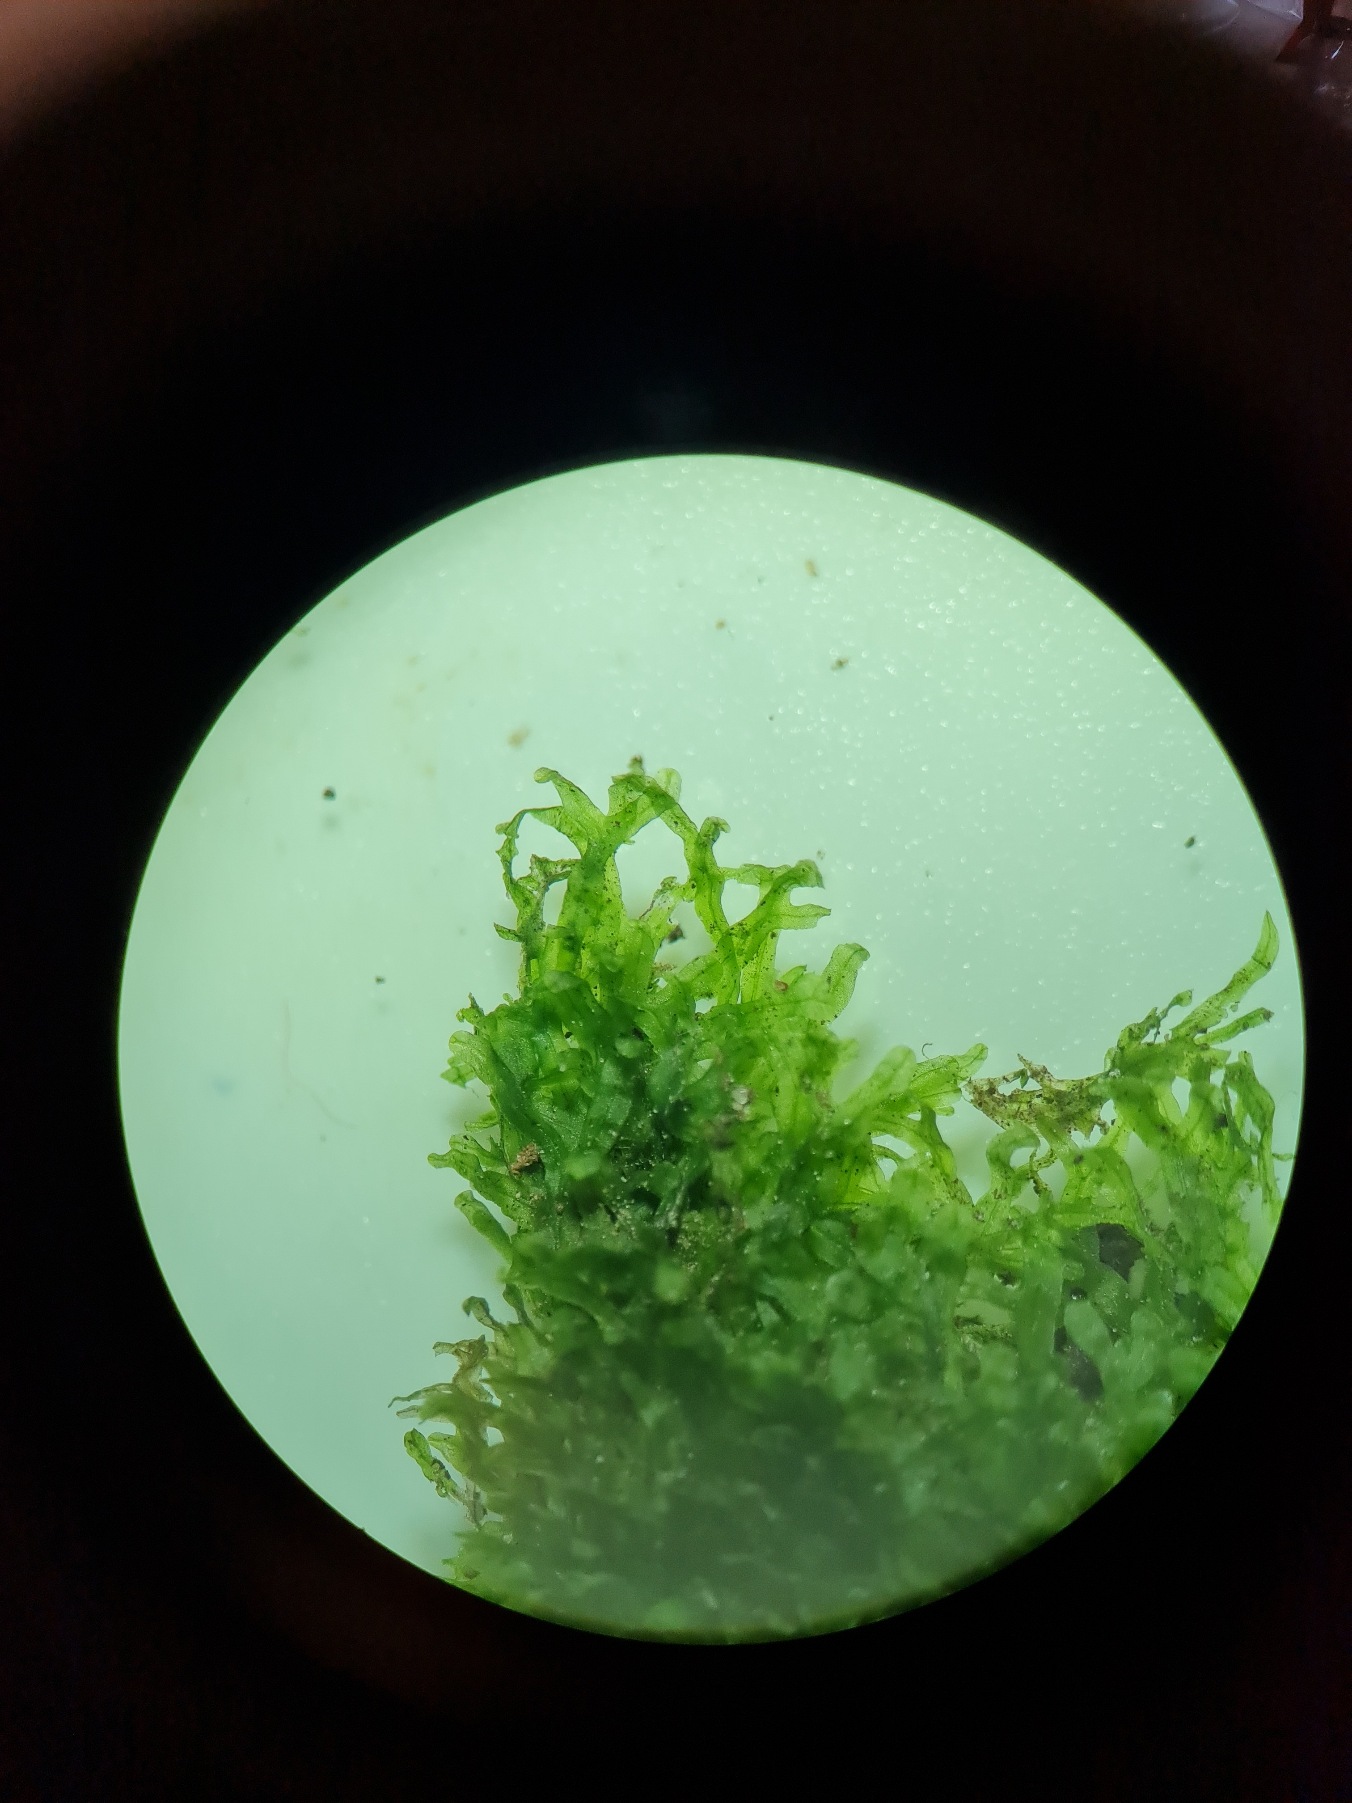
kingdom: Plantae
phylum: Marchantiophyta
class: Jungermanniopsida
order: Metzgeriales
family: Metzgeriaceae
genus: Metzgeria
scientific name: Metzgeria furcata
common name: Almindelig gaffelløv
